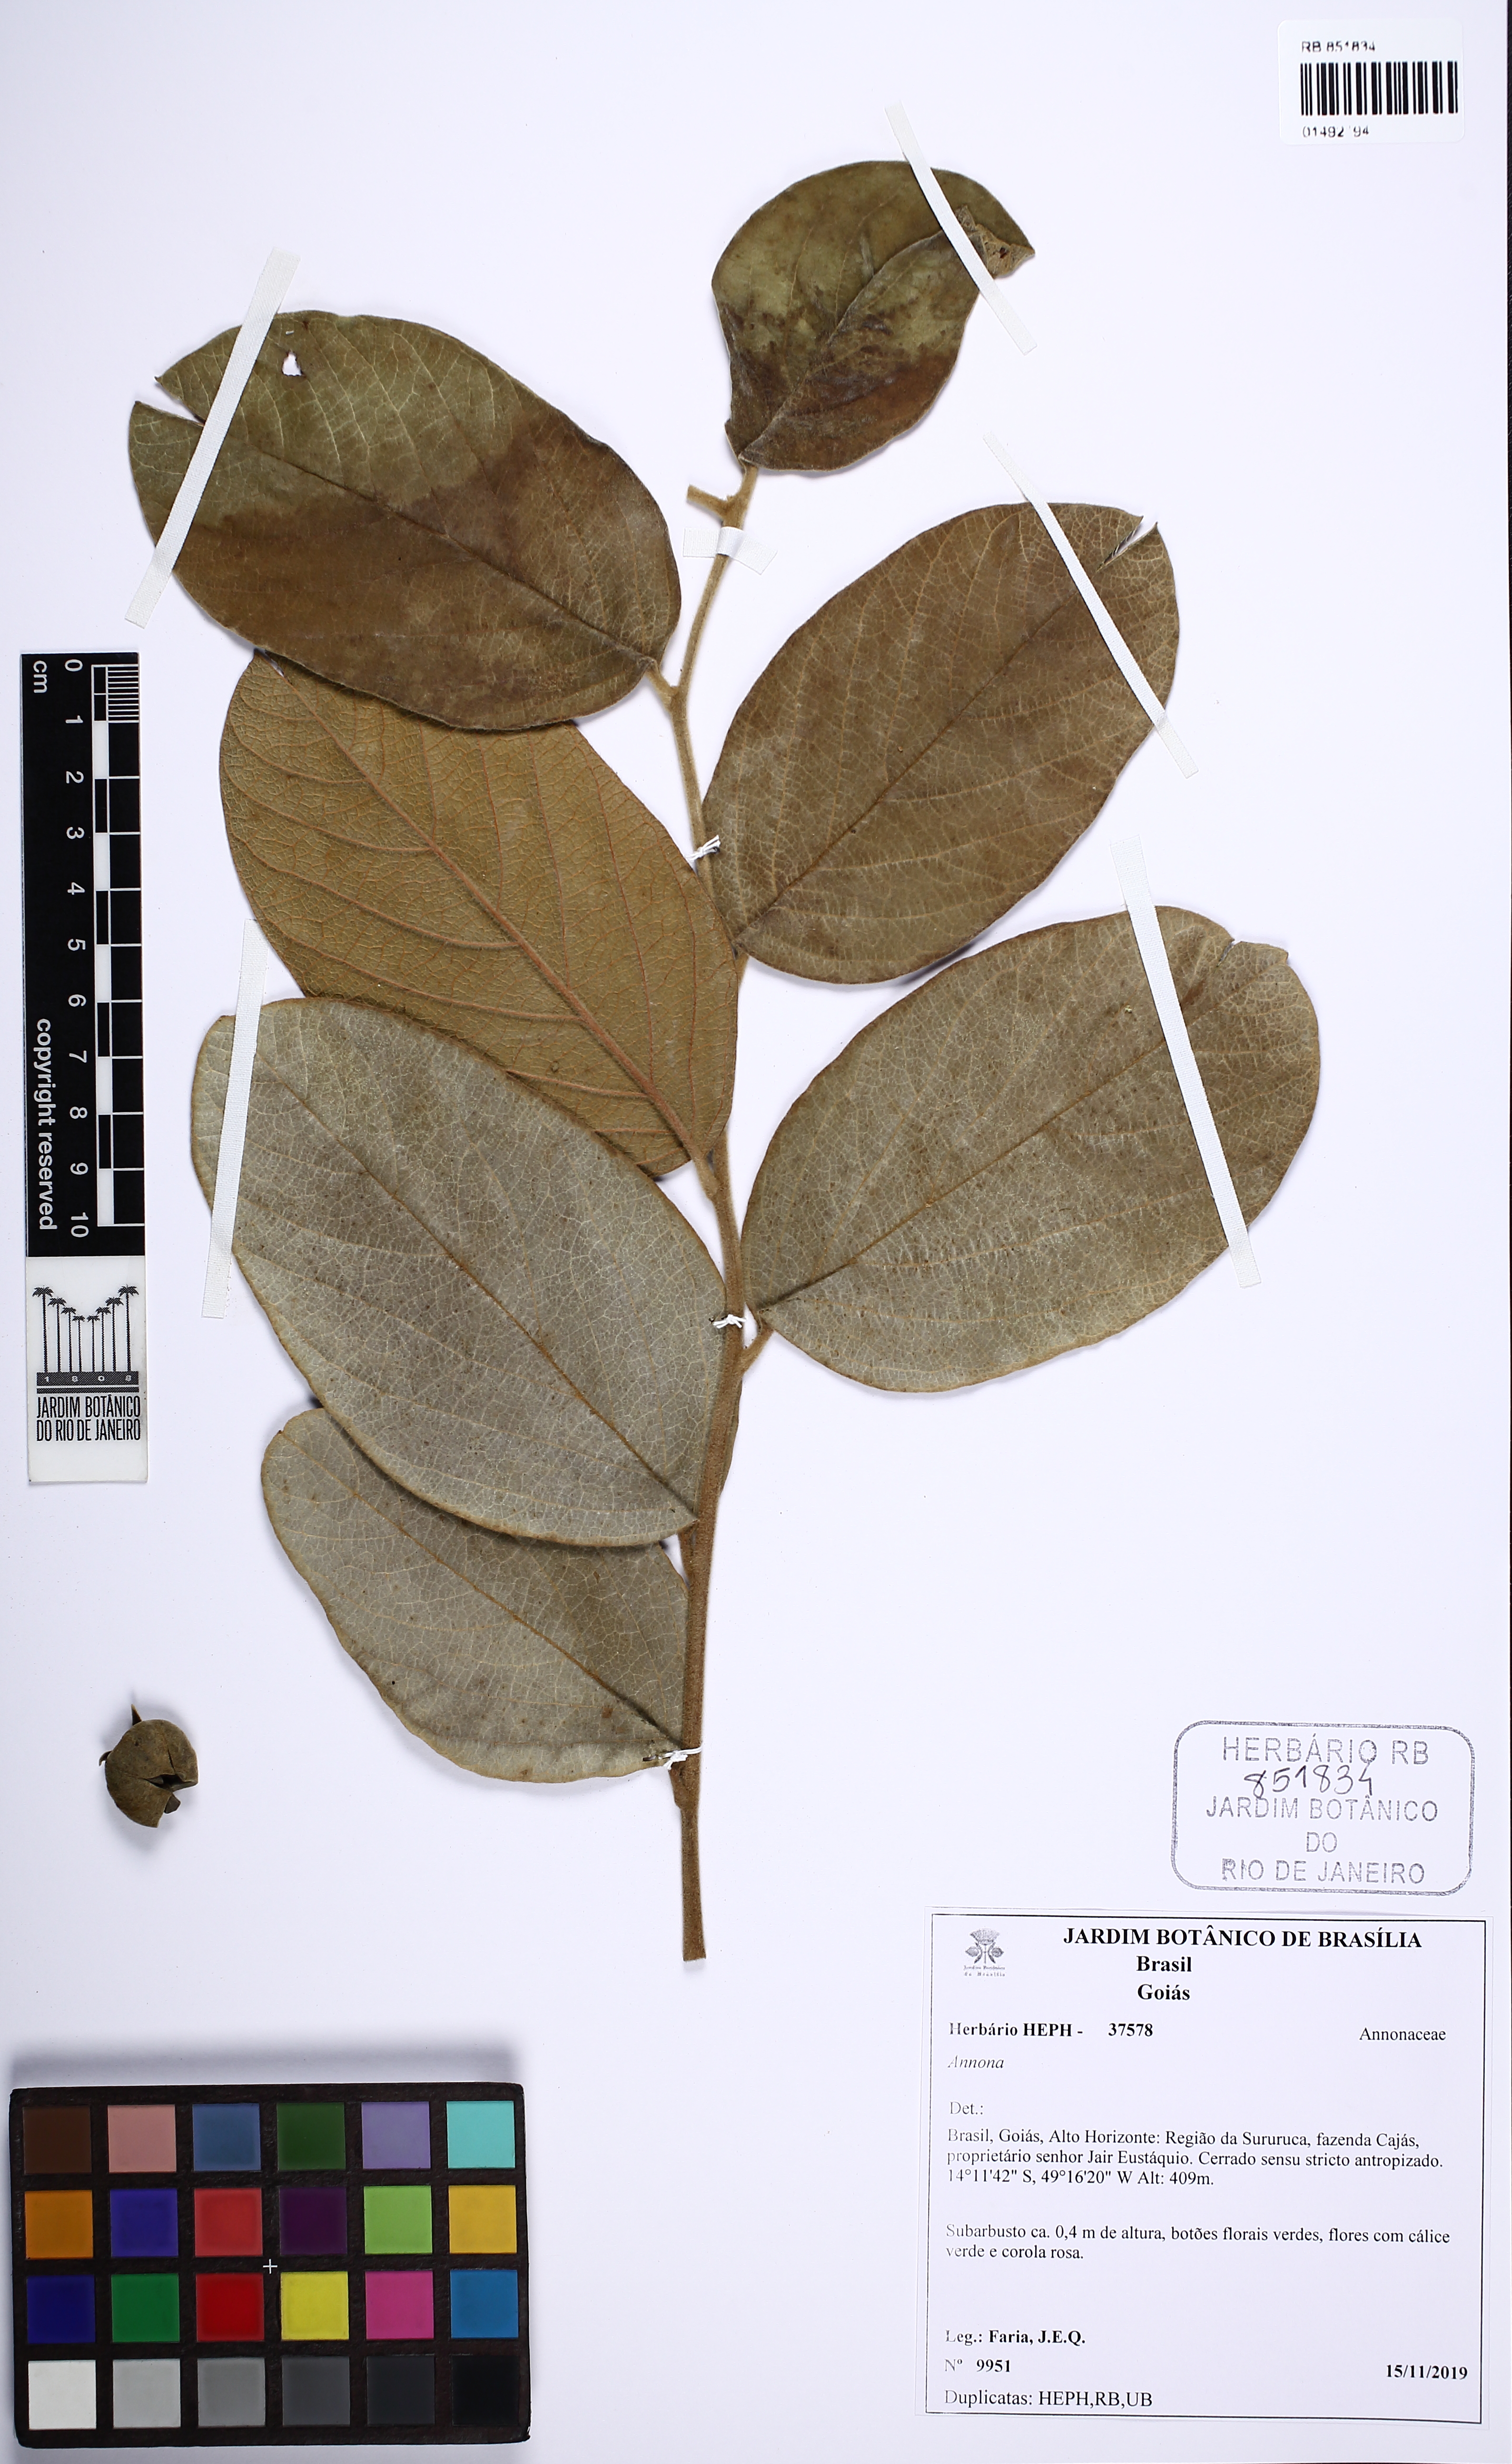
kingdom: Plantae
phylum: Tracheophyta
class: Magnoliopsida
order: Magnoliales
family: Annonaceae
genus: Annona
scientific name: Annona
